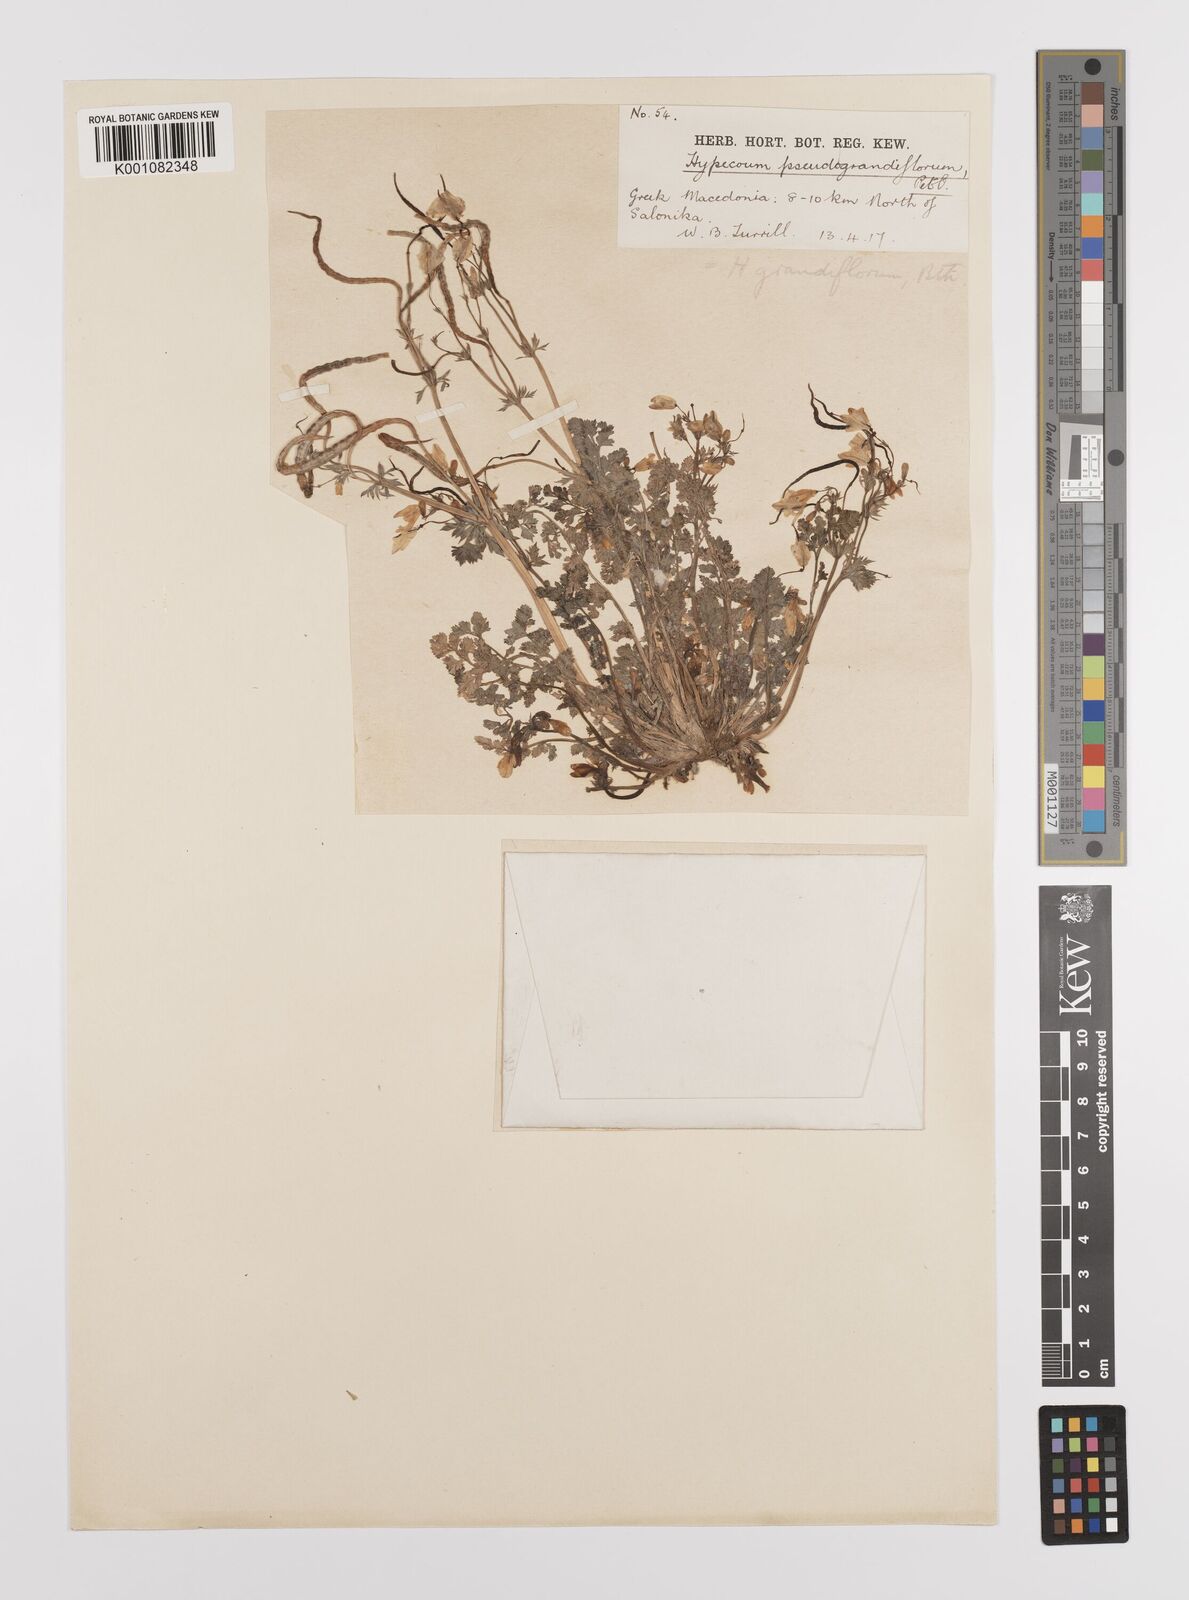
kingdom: Plantae
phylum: Tracheophyta
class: Magnoliopsida
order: Ranunculales
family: Papaveraceae
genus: Hypecoum
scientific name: Hypecoum imberbe
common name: Sicklefruit hypecoum
